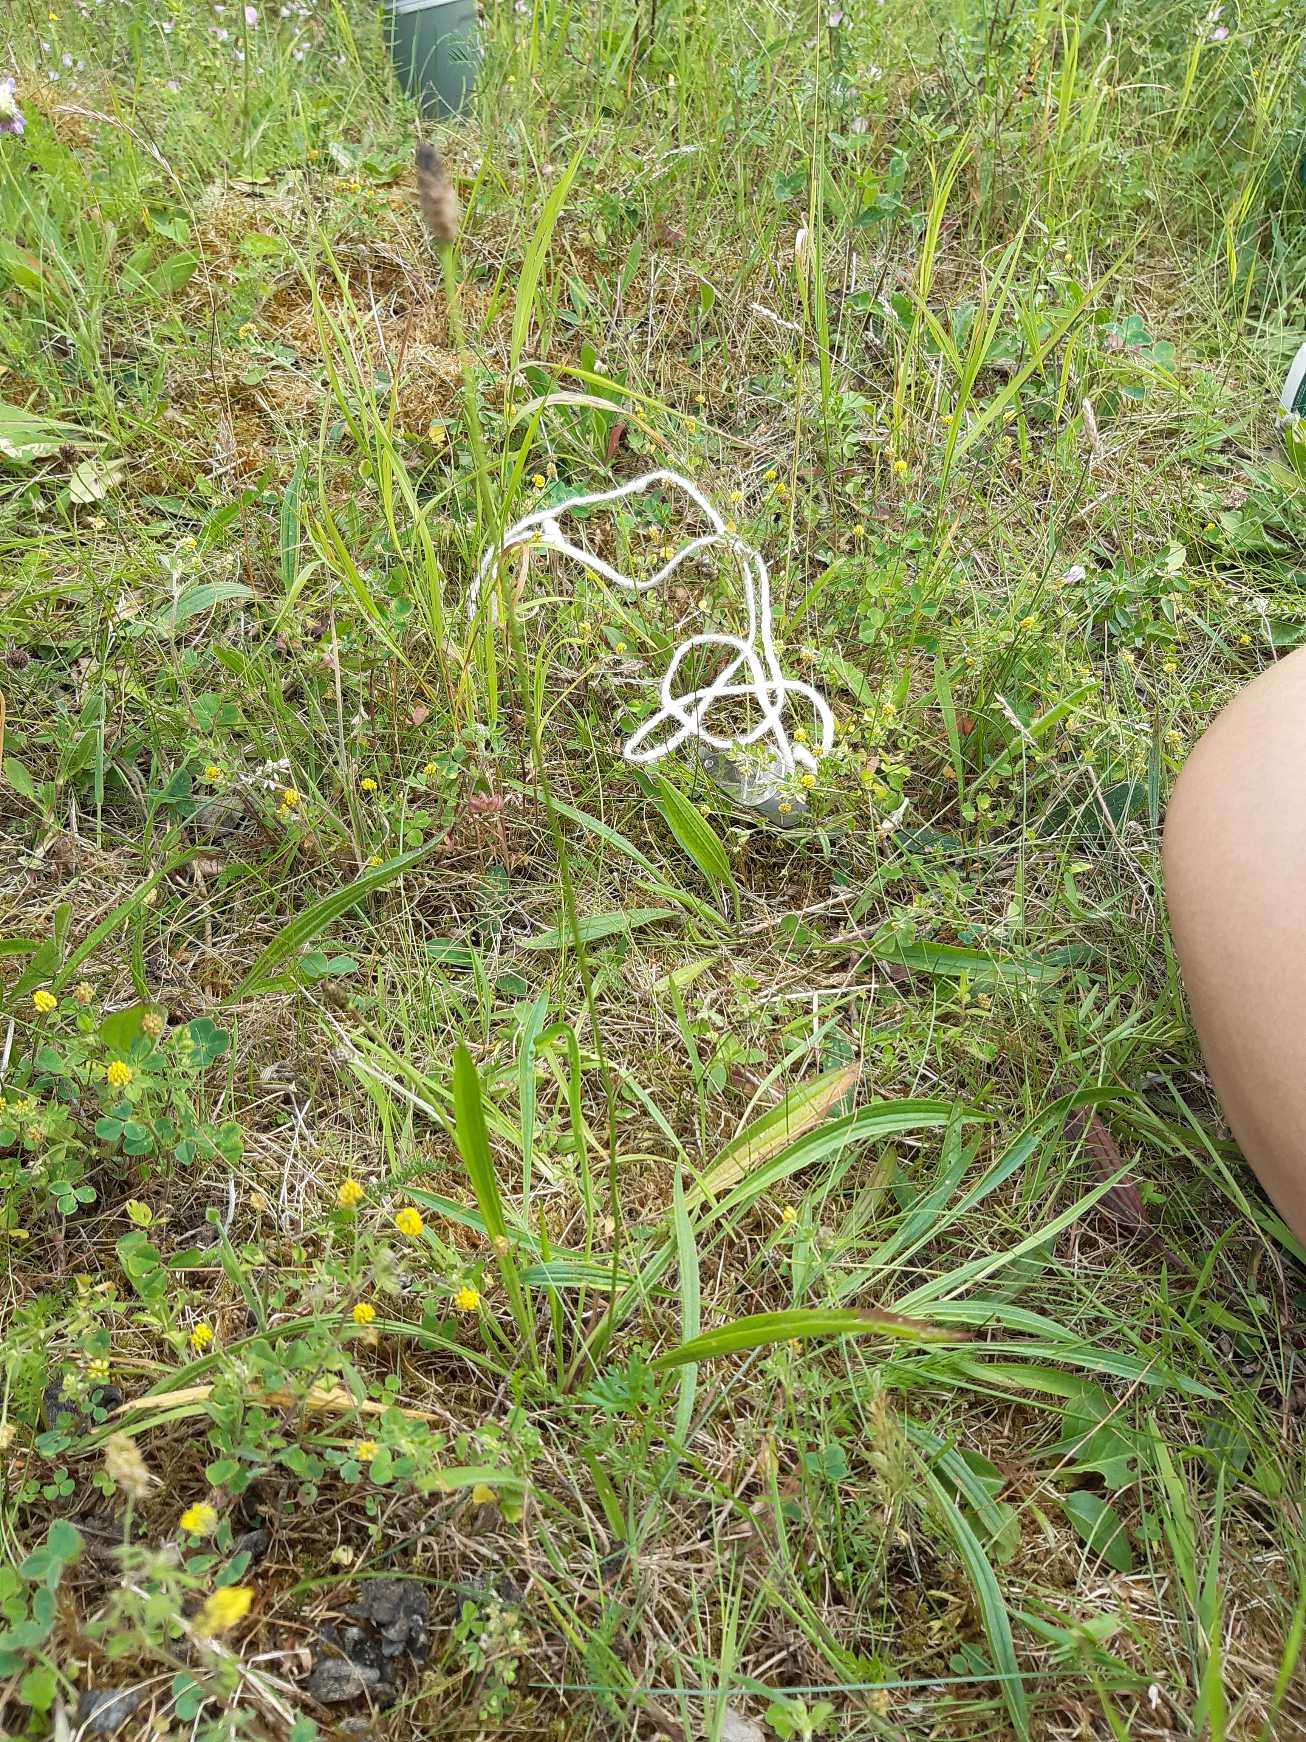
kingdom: Plantae
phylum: Tracheophyta
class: Magnoliopsida
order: Lamiales
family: Plantaginaceae
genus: Plantago
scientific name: Plantago lanceolata
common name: Lancet-vejbred
